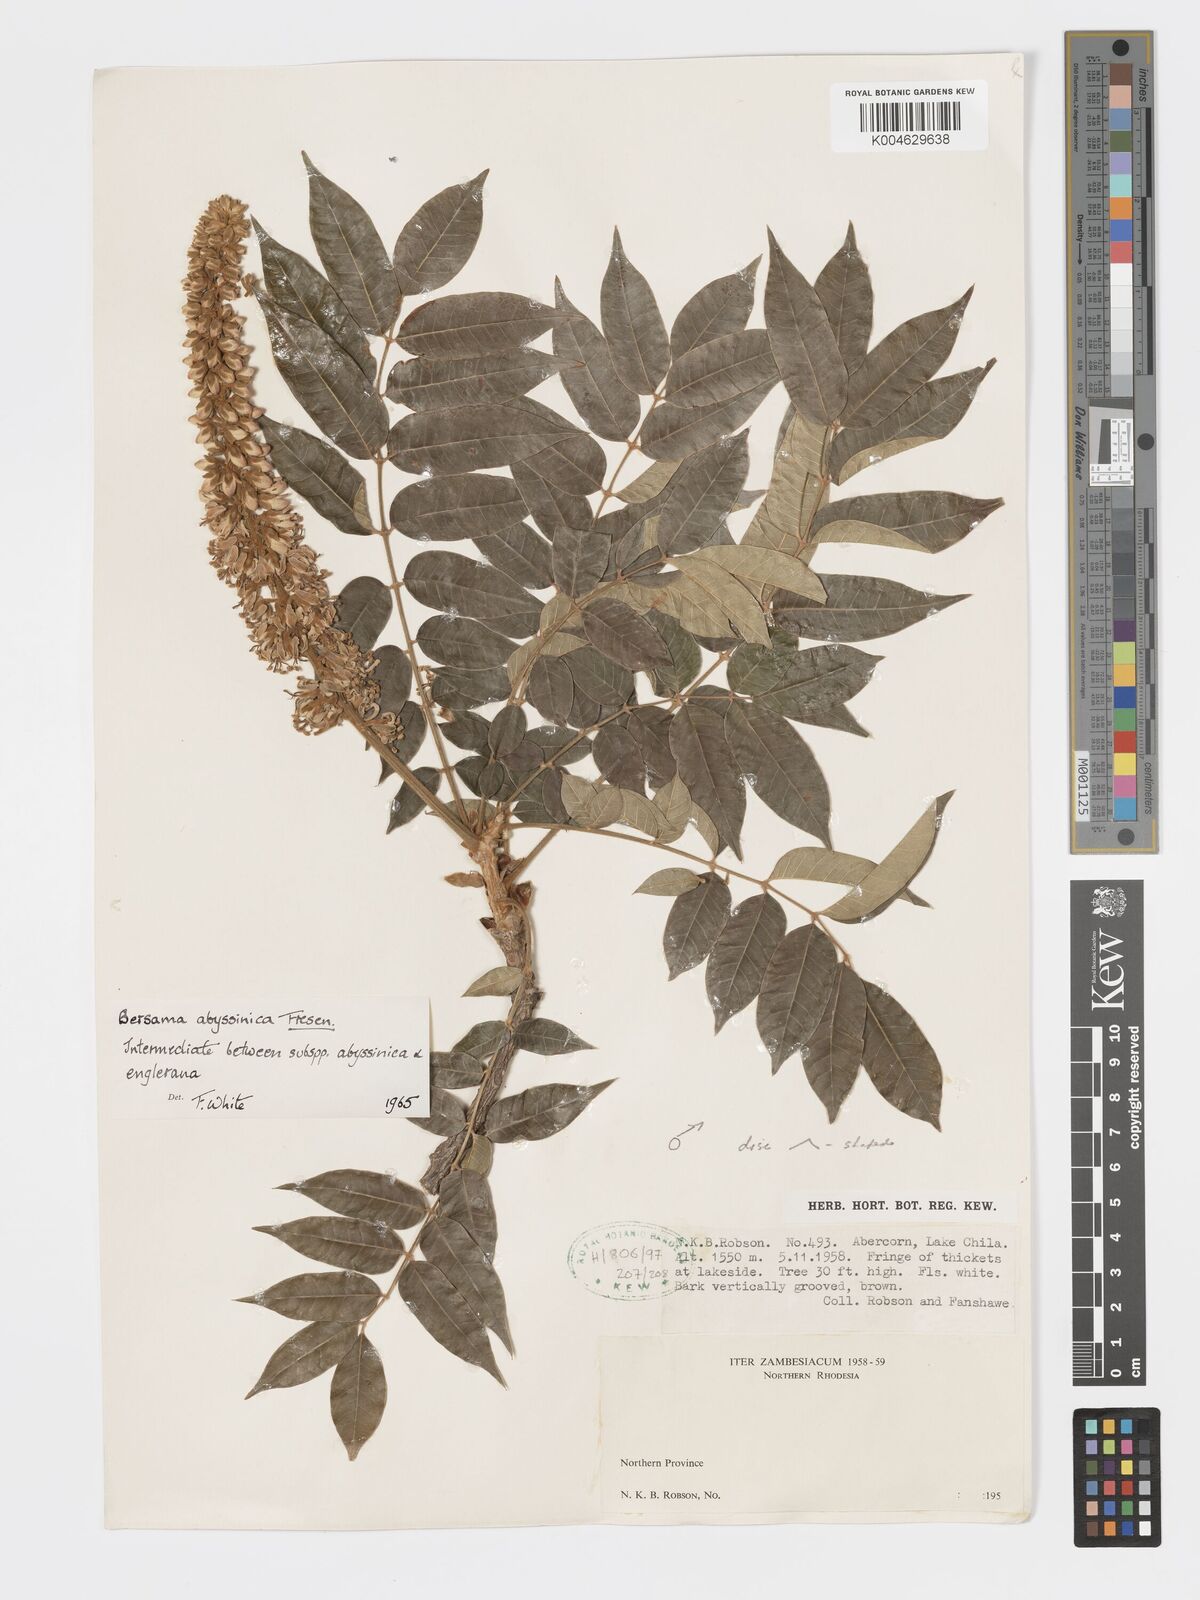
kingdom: Plantae
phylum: Tracheophyta
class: Magnoliopsida
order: Geraniales
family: Melianthaceae
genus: Bersama
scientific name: Bersama
